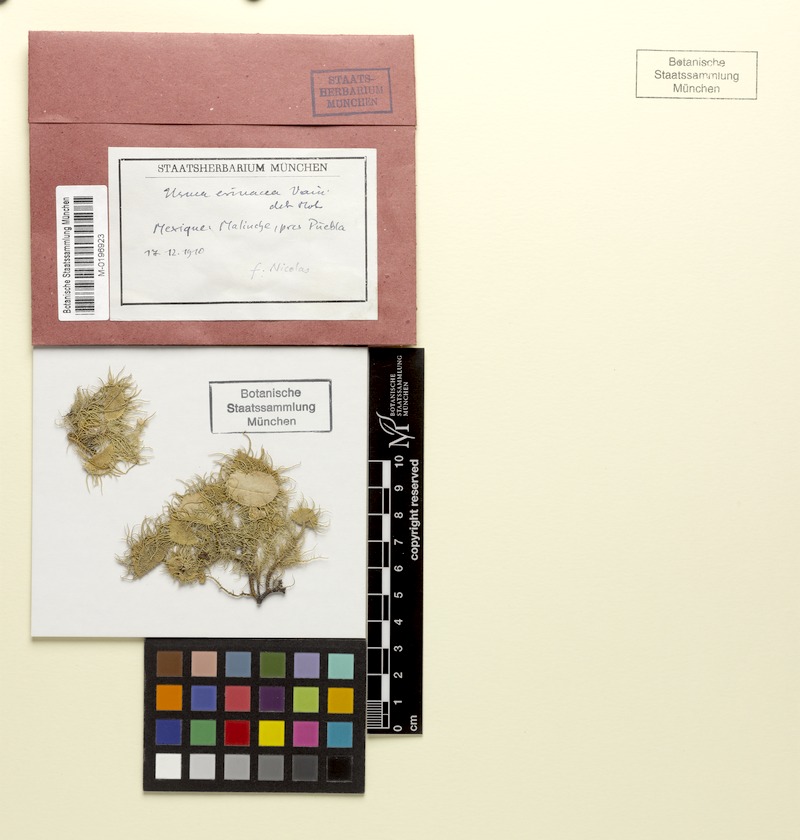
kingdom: Fungi
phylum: Ascomycota
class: Lecanoromycetes
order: Lecanorales
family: Parmeliaceae
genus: Usnea
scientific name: Usnea erinacea
